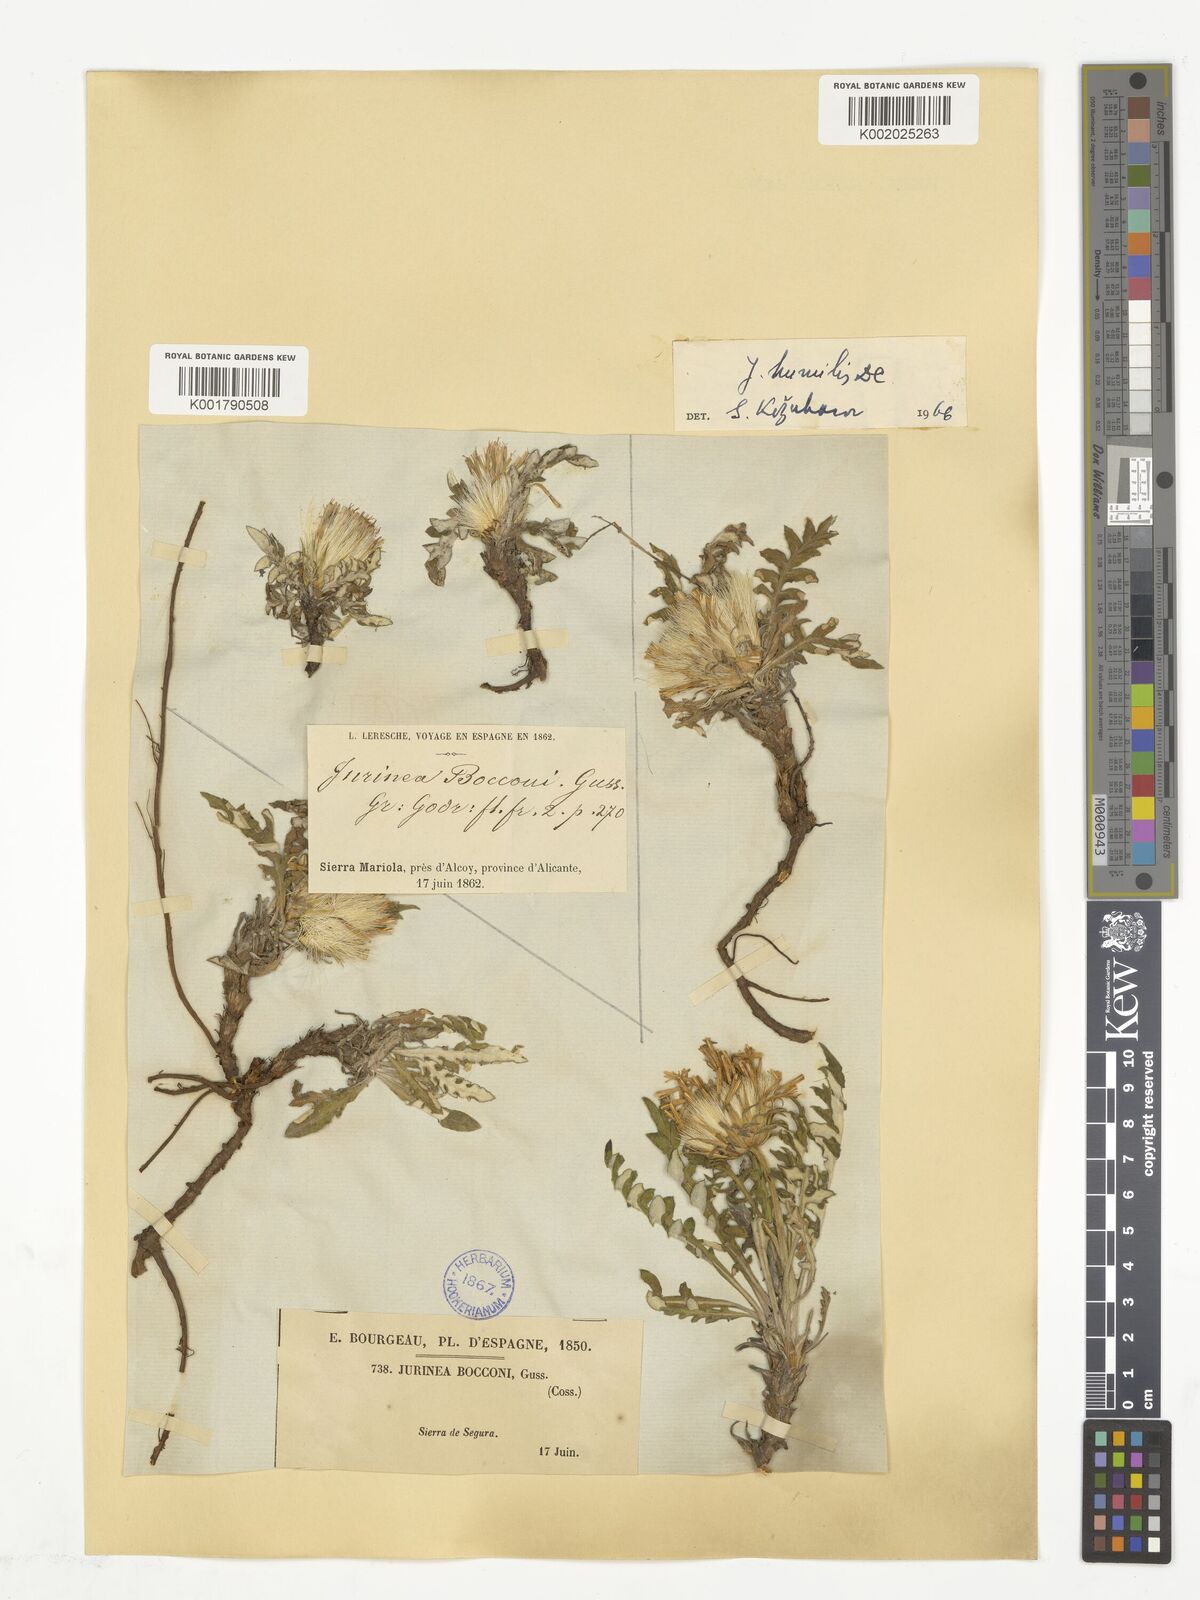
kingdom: Plantae
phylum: Tracheophyta
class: Magnoliopsida
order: Asterales
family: Asteraceae
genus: Jurinea
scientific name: Jurinea humilis
